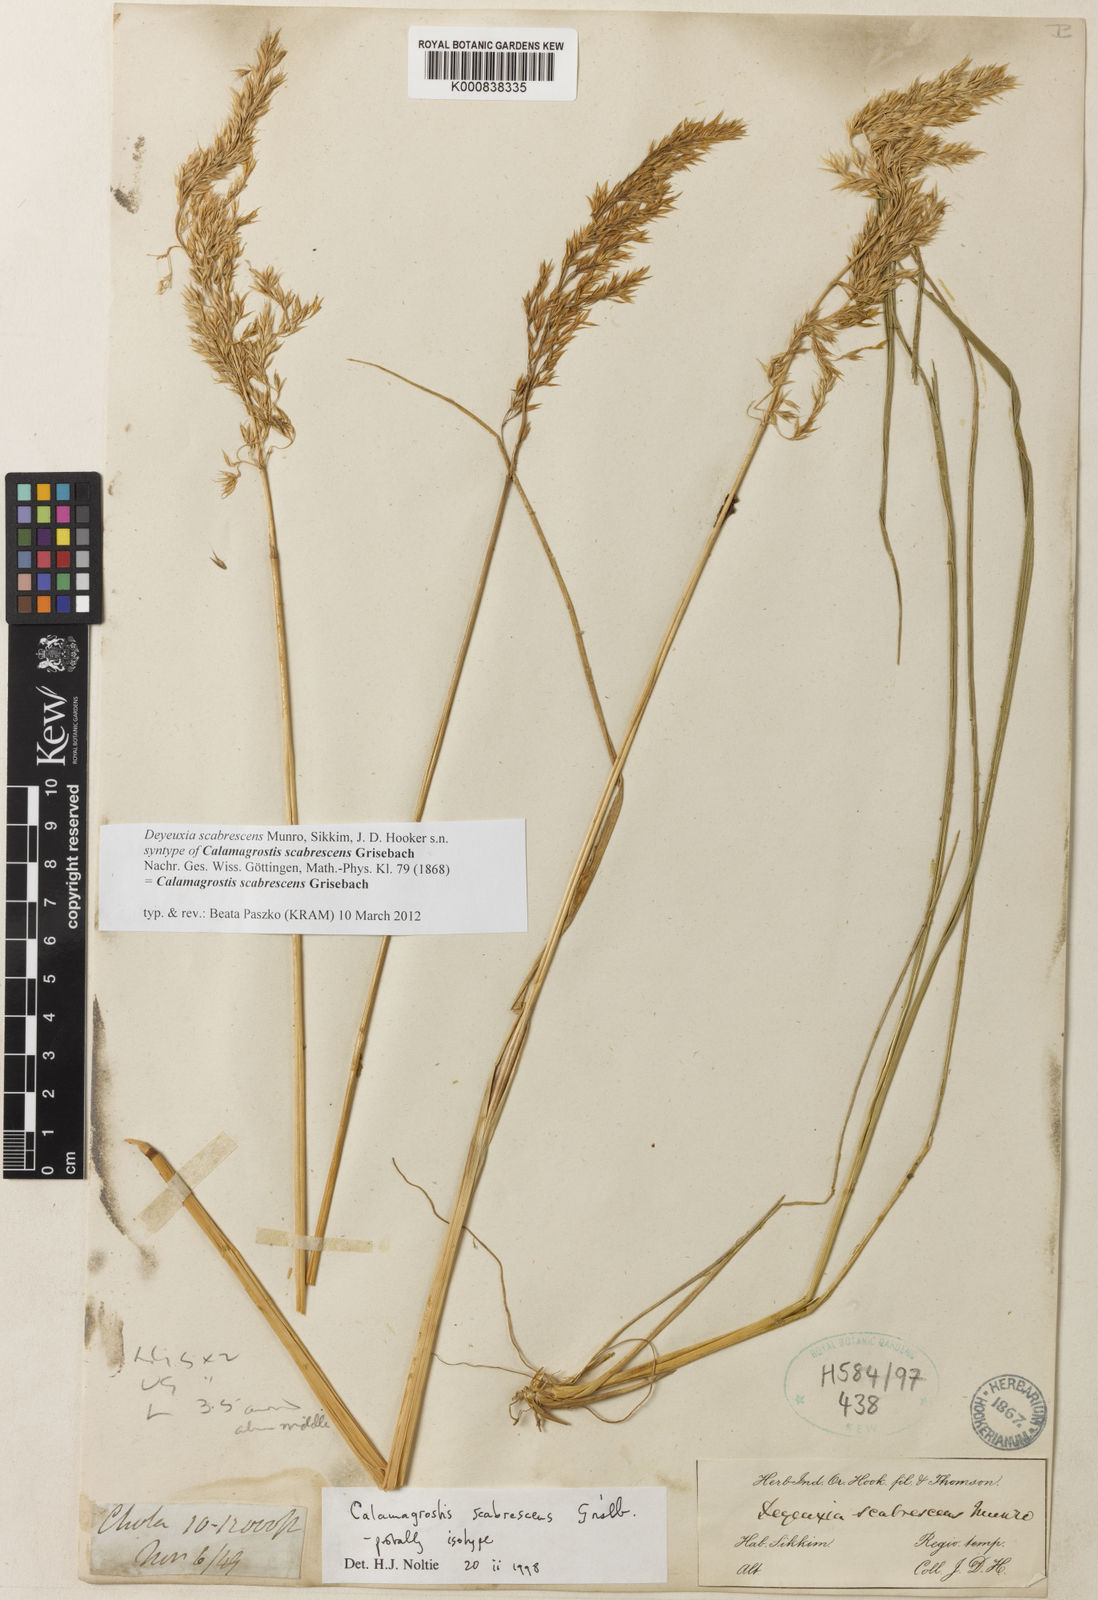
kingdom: Plantae
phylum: Tracheophyta
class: Liliopsida
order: Poales
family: Poaceae
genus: Calamagrostis
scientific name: Calamagrostis scabrescens
